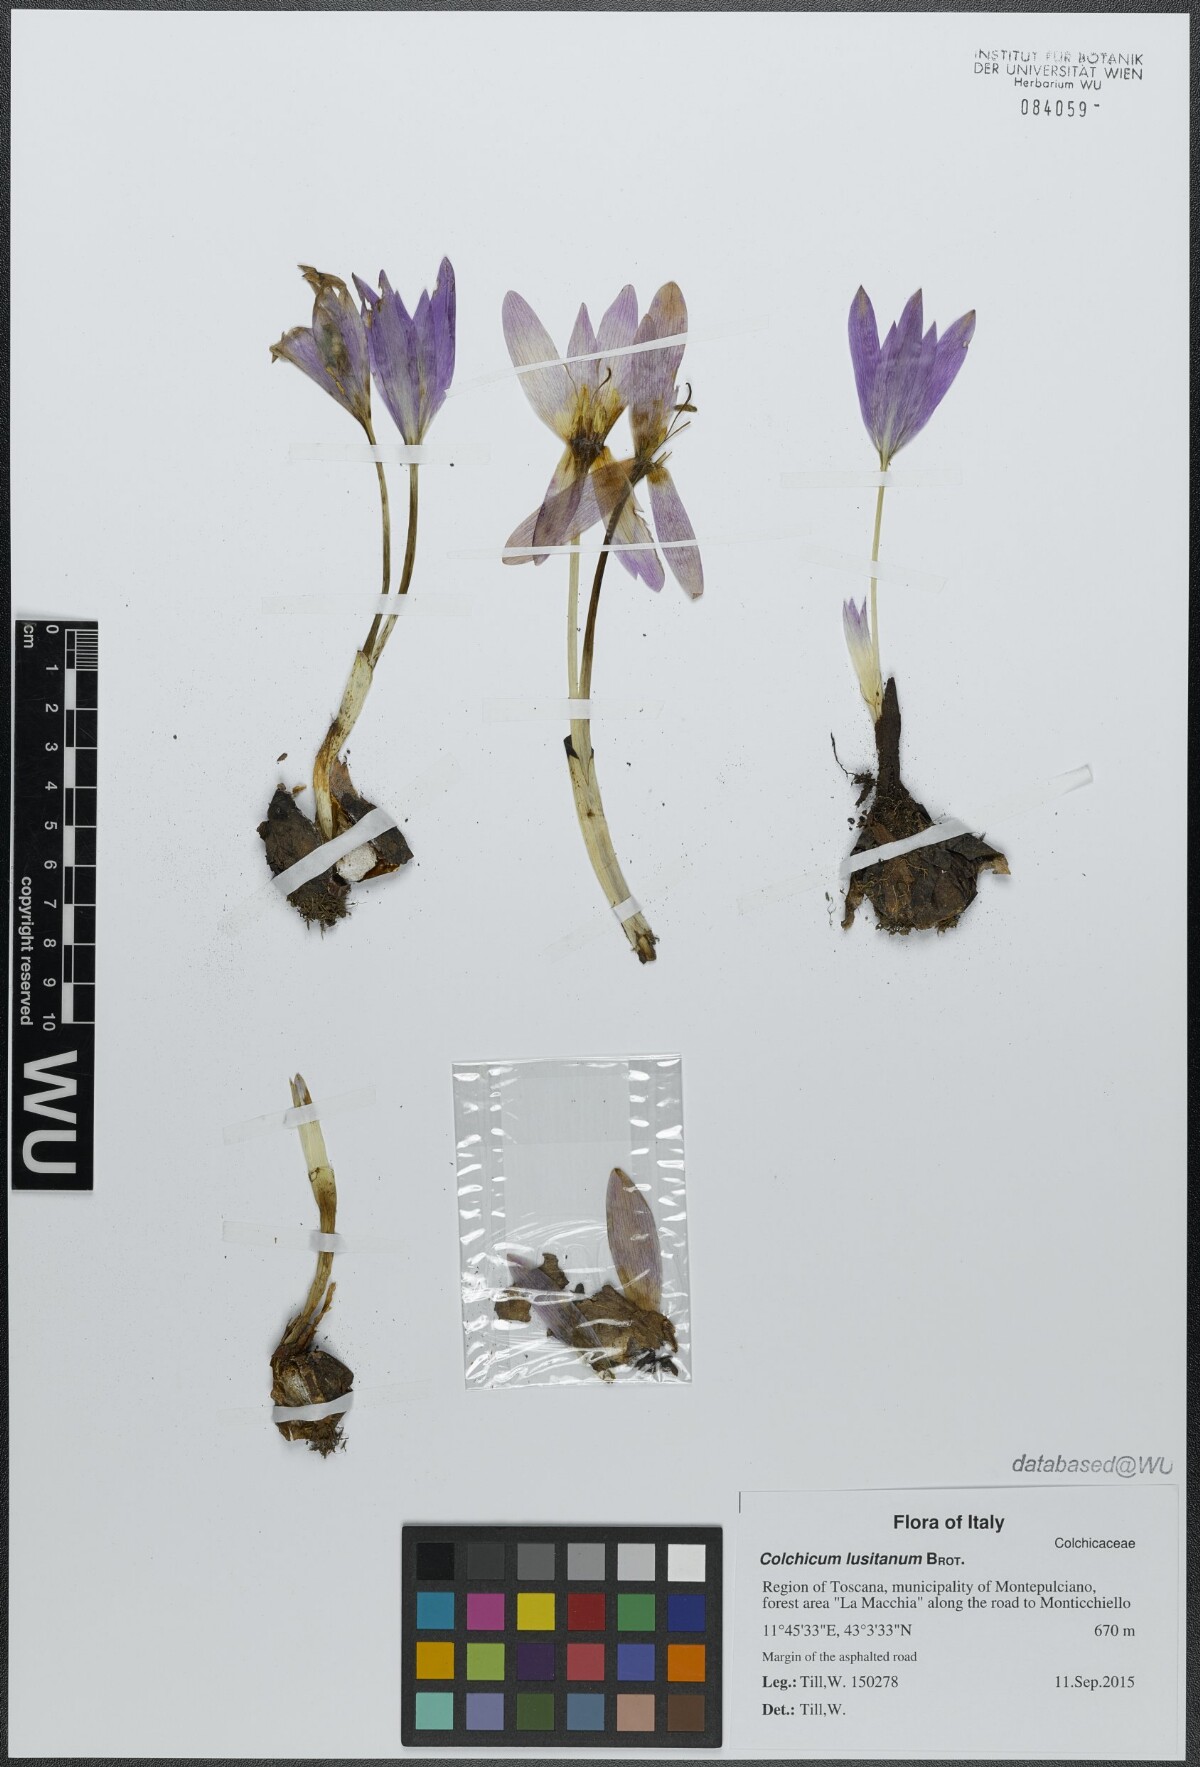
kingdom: Plantae
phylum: Tracheophyta
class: Liliopsida
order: Liliales
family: Colchicaceae
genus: Colchicum
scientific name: Colchicum lusitanum
